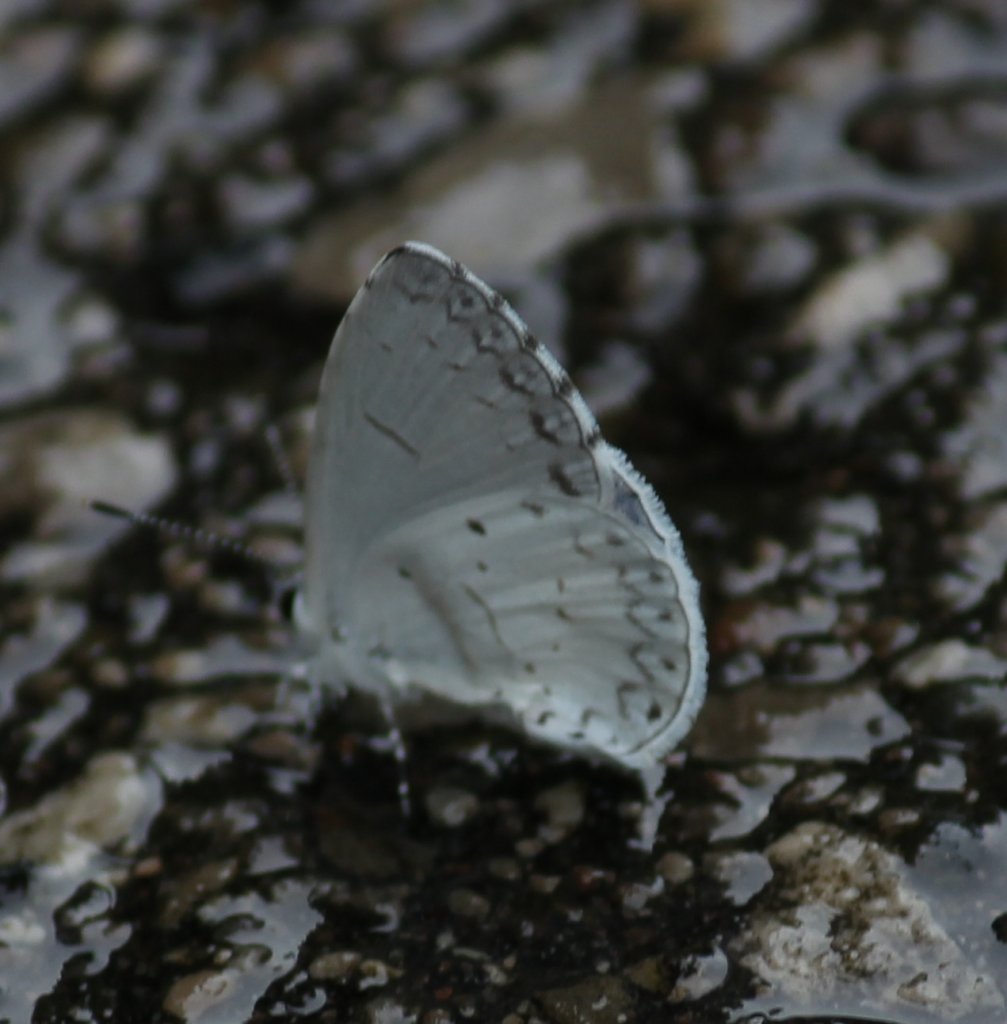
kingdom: Animalia
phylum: Arthropoda
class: Insecta
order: Lepidoptera
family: Lycaenidae
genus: Celastrina
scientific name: Celastrina
